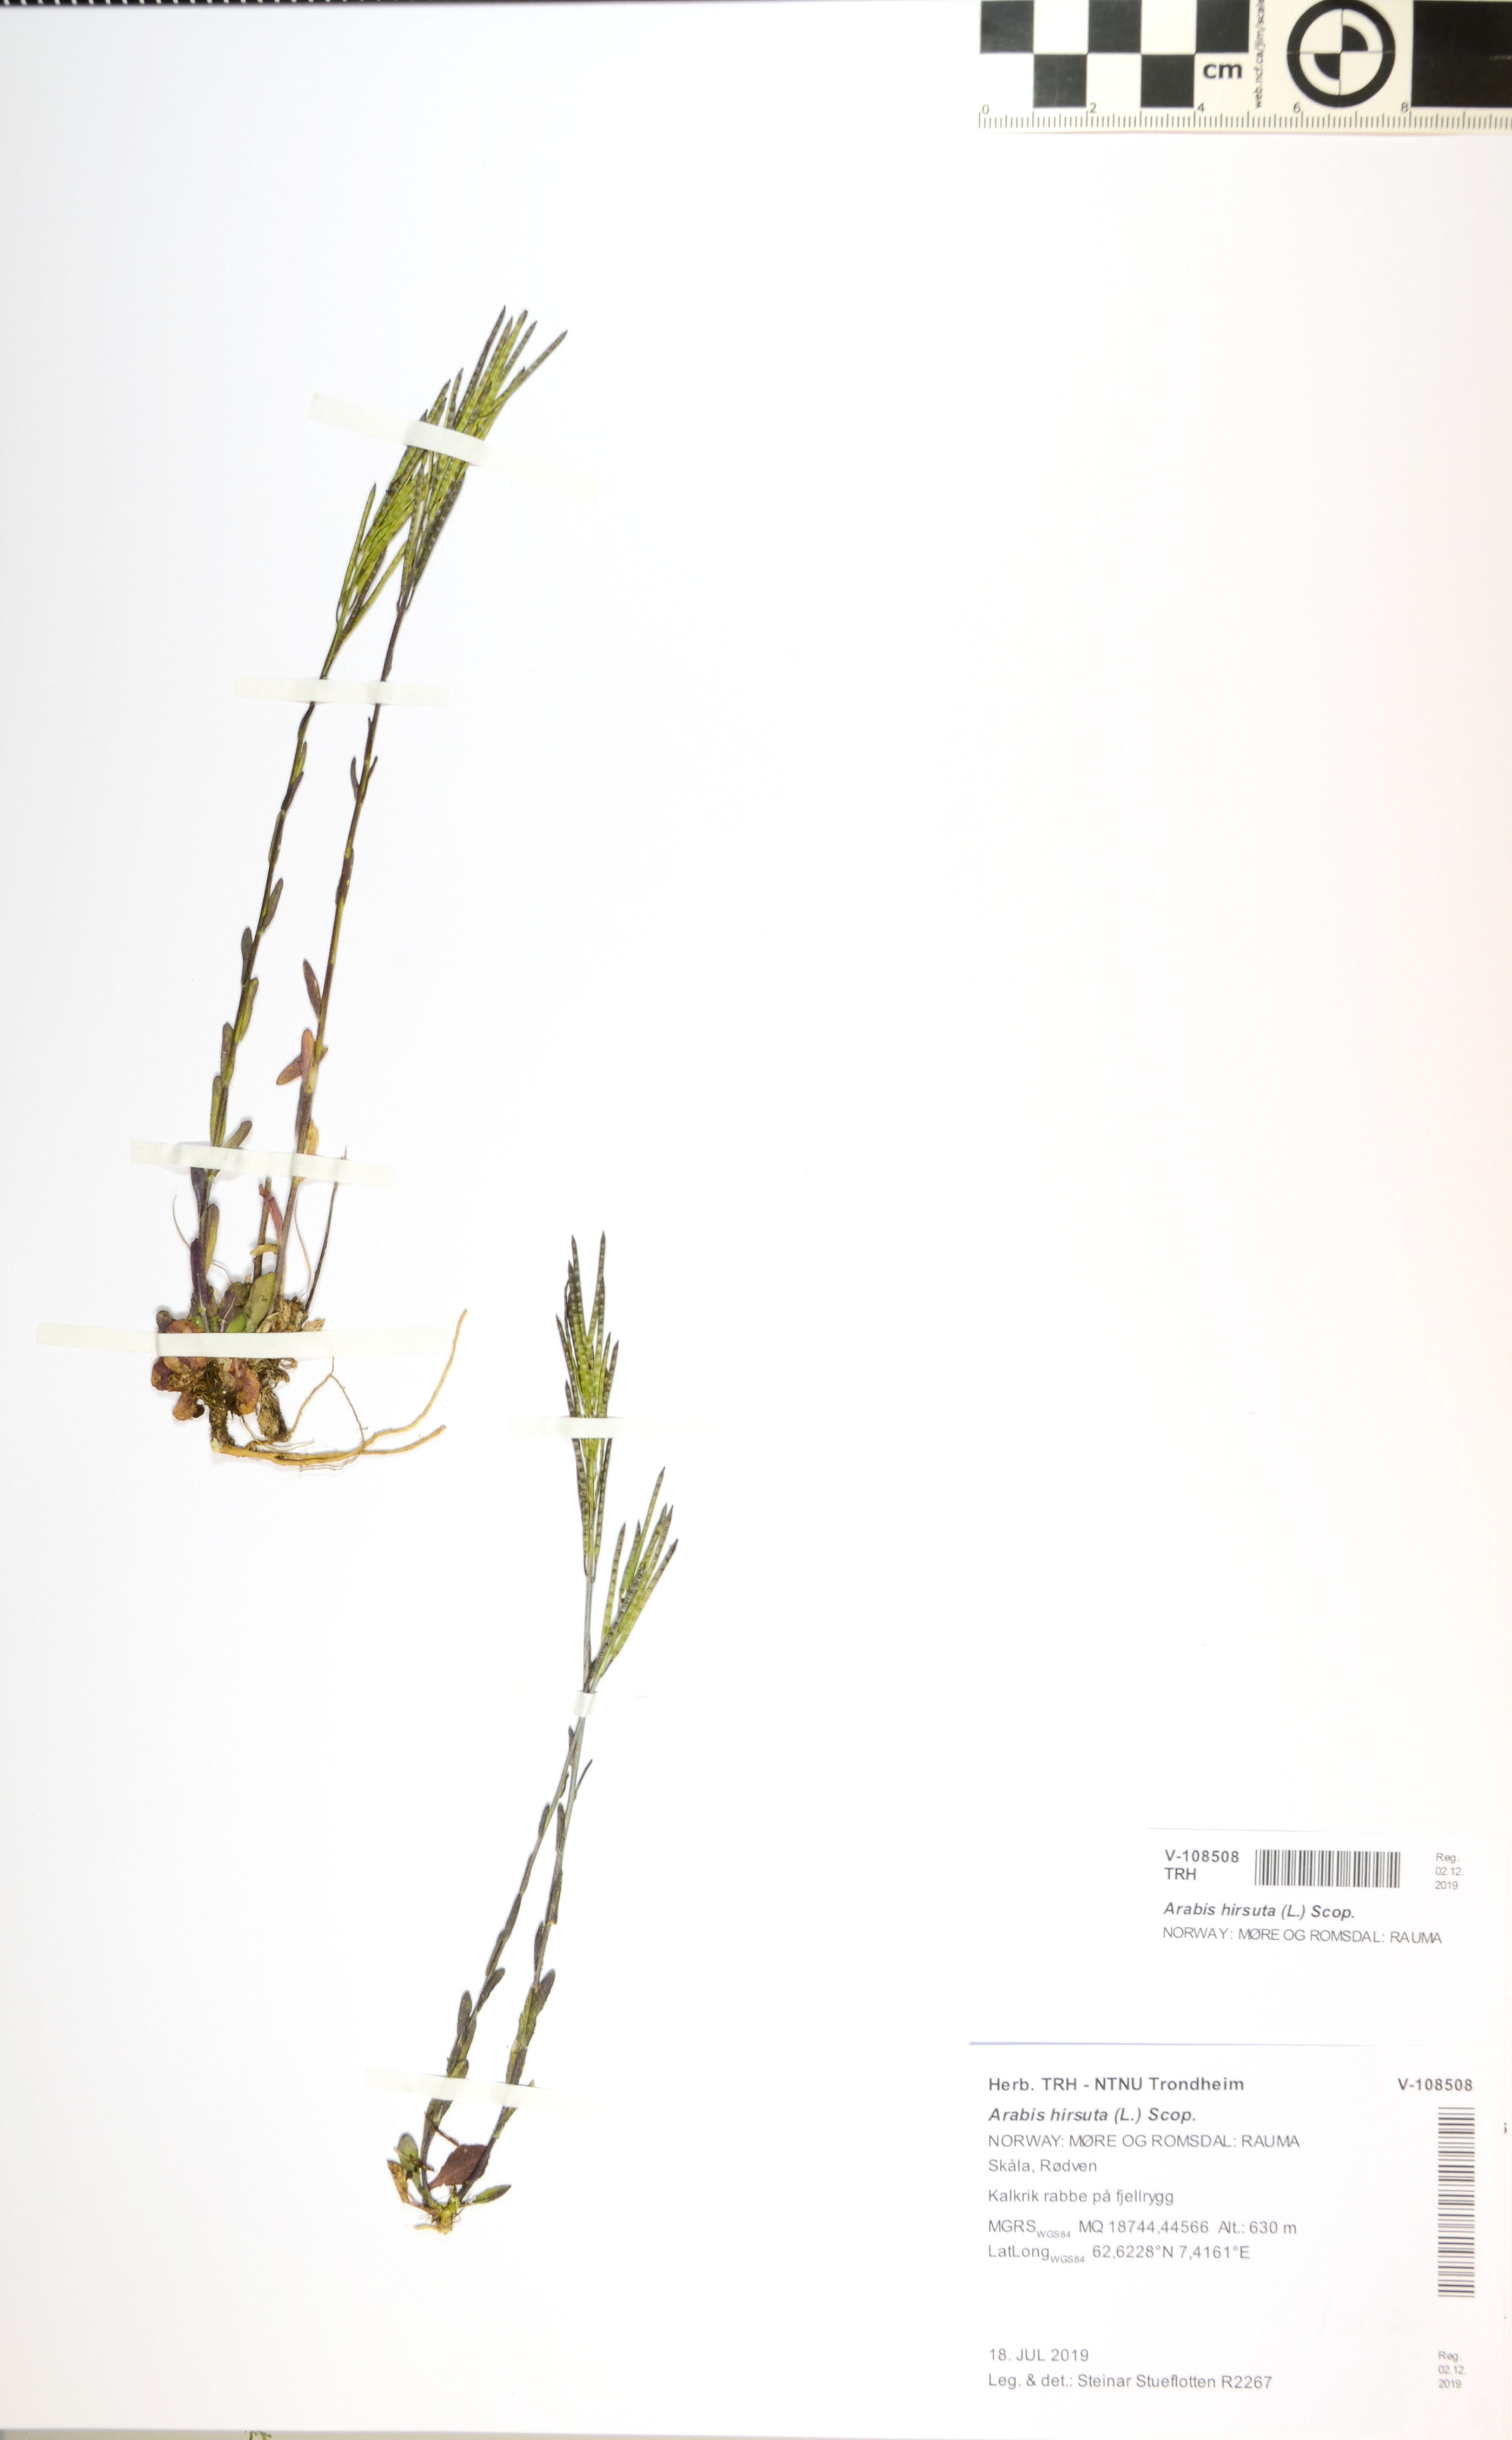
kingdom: Plantae
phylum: Tracheophyta
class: Magnoliopsida
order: Brassicales
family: Brassicaceae
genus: Arabis
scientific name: Arabis hirsuta
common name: Hairy rock-cress
